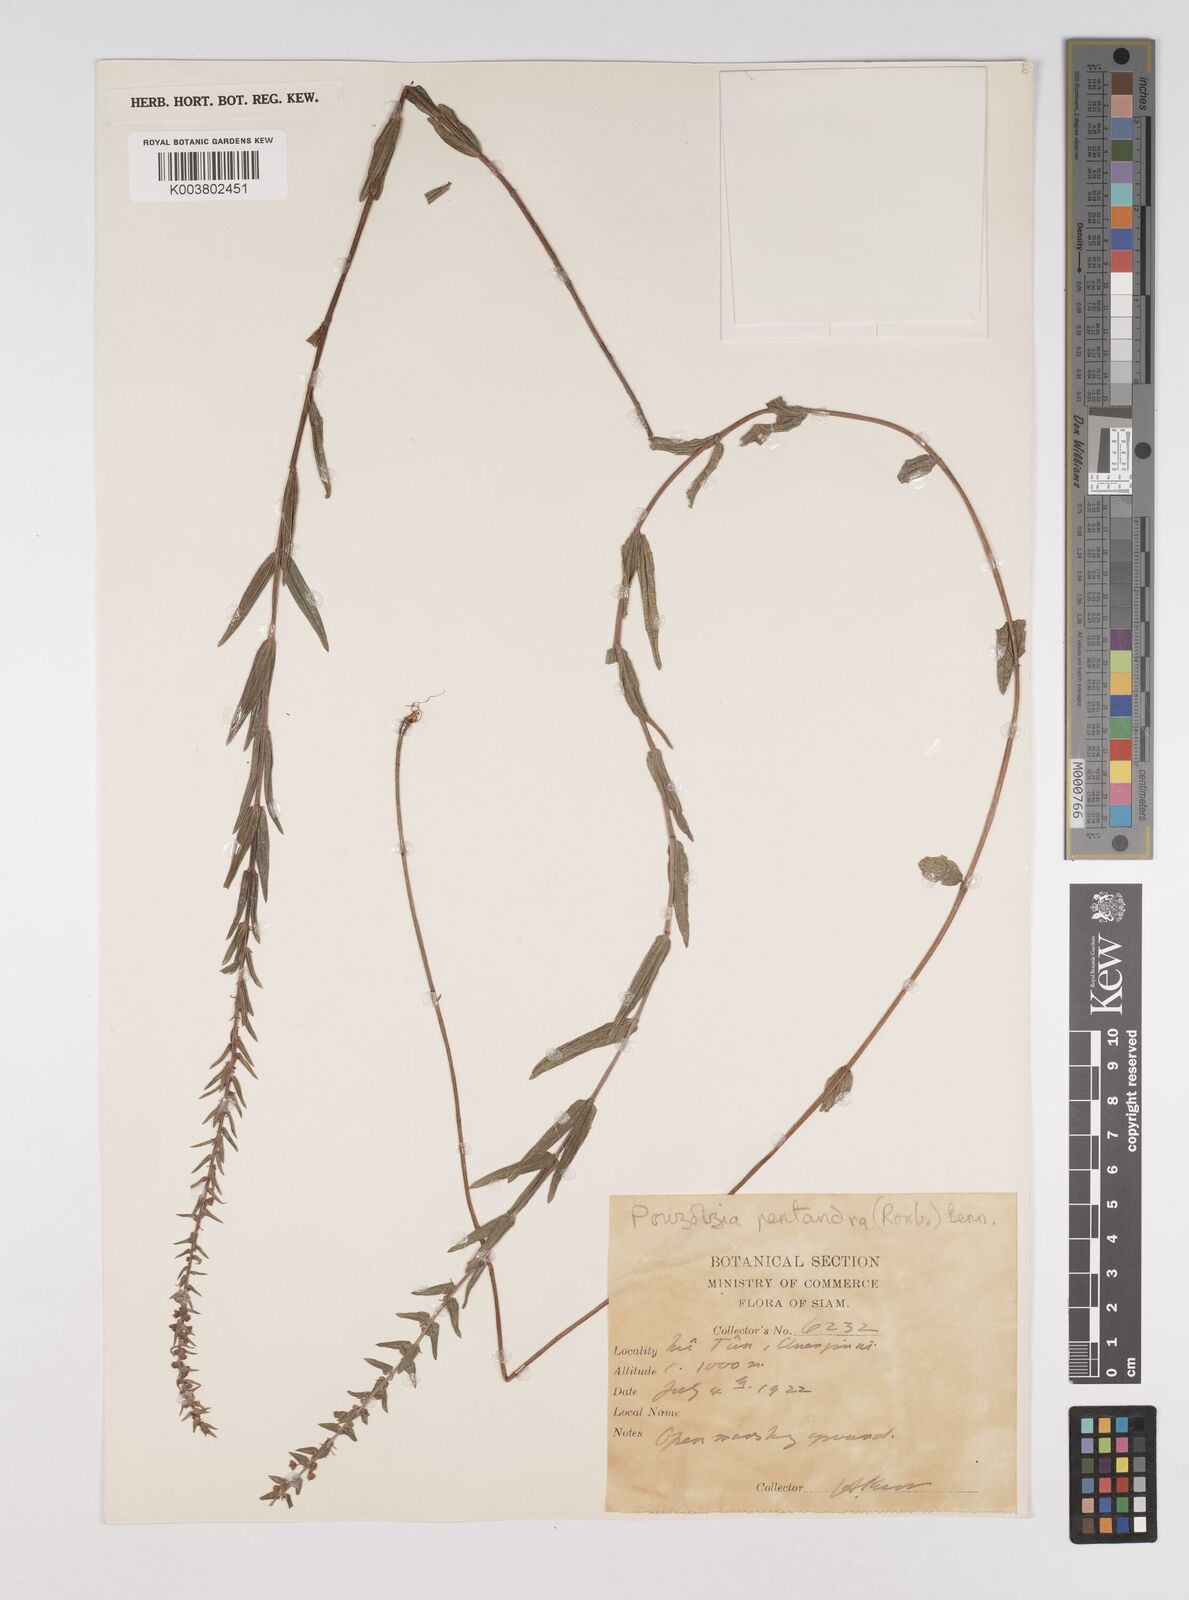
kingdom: Plantae
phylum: Tracheophyta
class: Magnoliopsida
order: Rosales
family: Urticaceae
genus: Gonostegia
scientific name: Gonostegia pentandra
